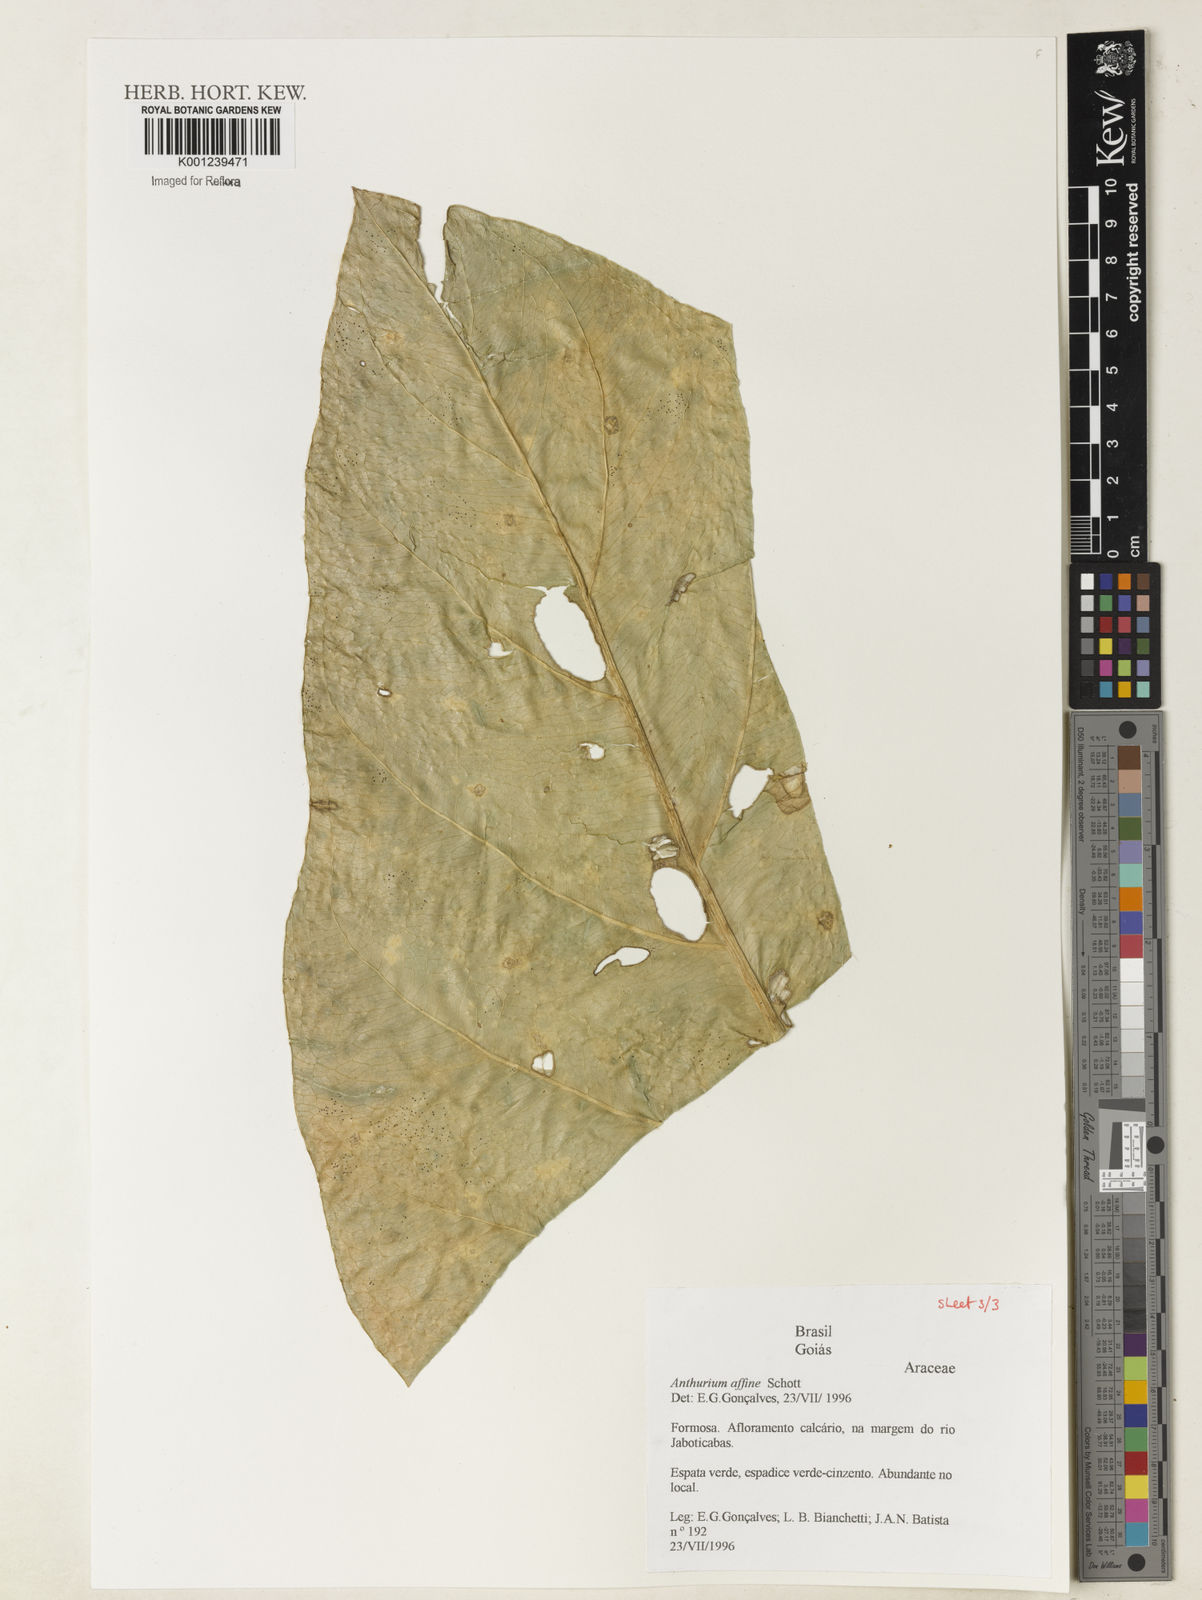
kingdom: Plantae
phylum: Tracheophyta
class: Liliopsida
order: Alismatales
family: Araceae
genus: Anthurium
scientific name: Anthurium affine
